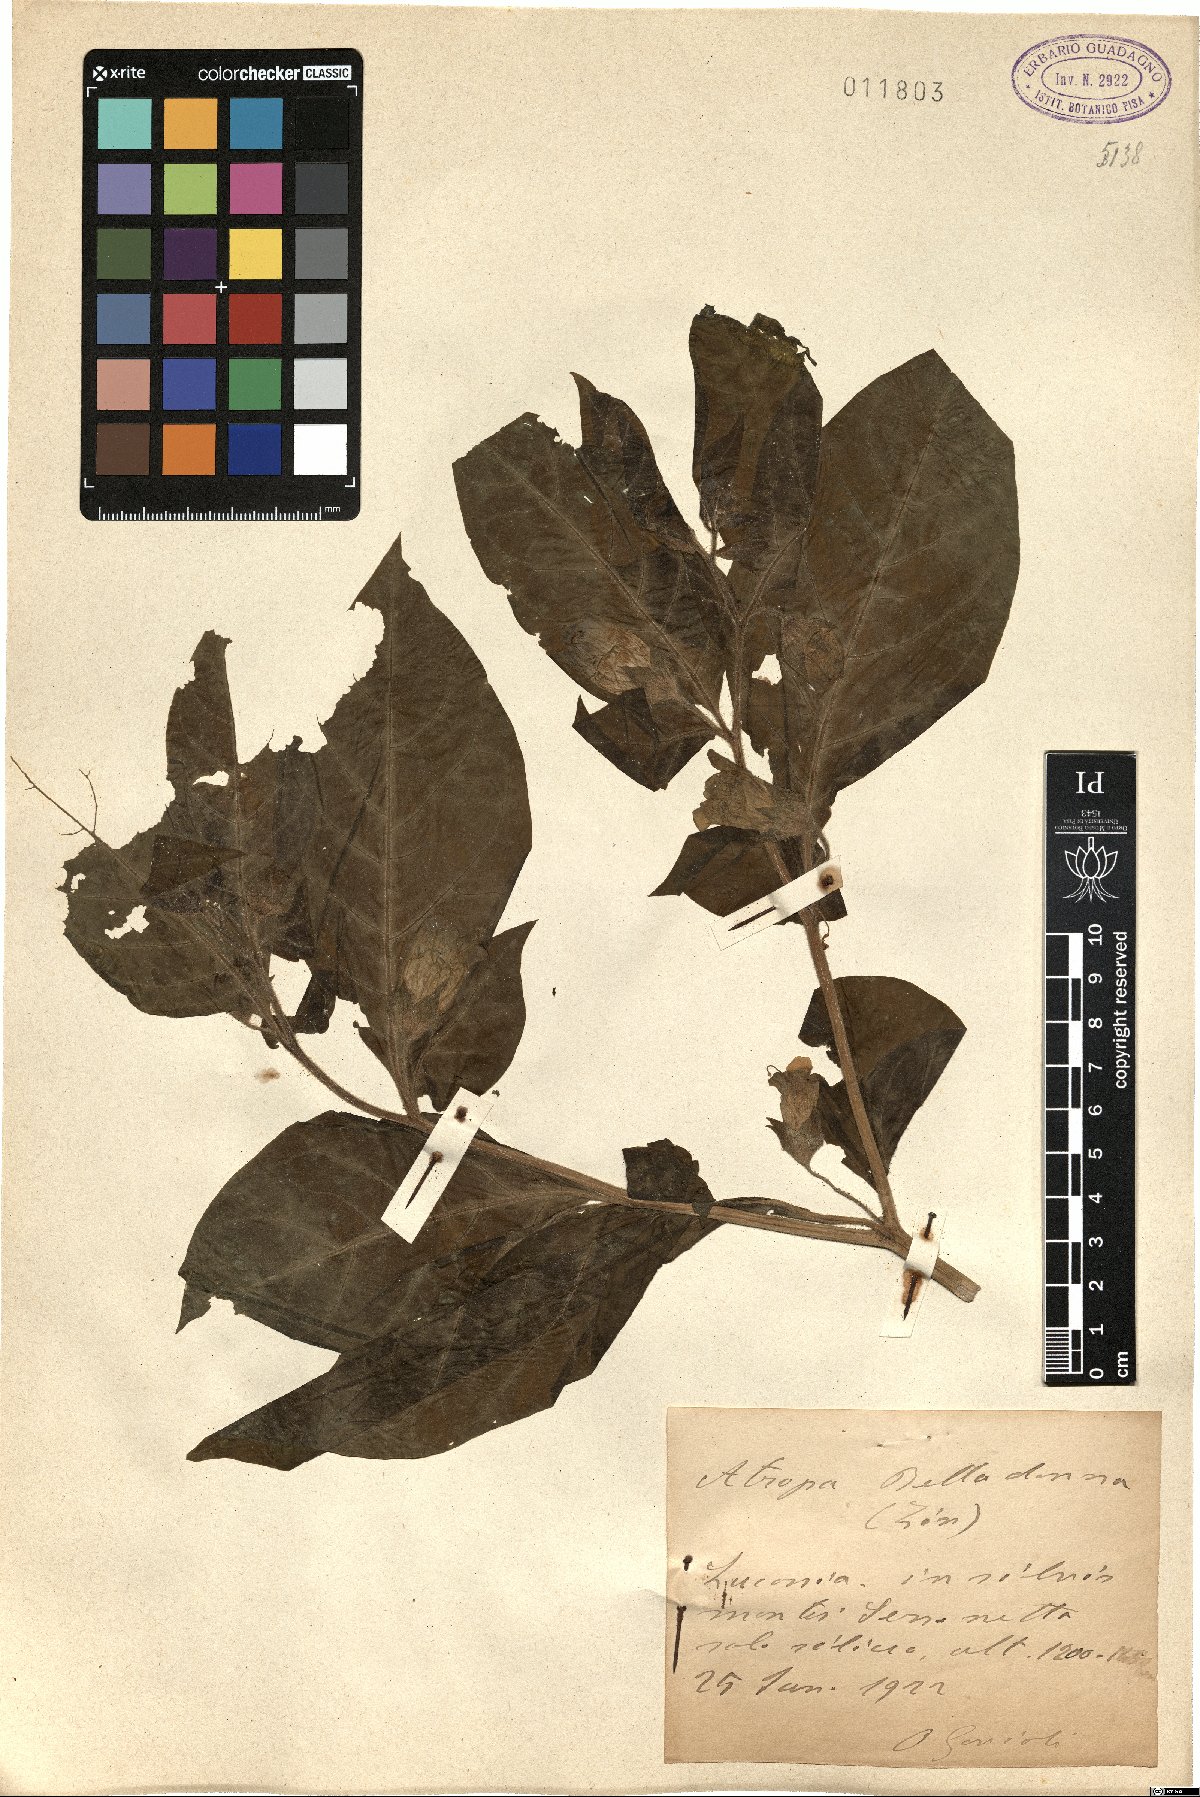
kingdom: Plantae
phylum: Tracheophyta
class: Magnoliopsida
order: Solanales
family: Solanaceae
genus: Atropa
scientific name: Atropa belladonna
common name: Deadly nightshade
